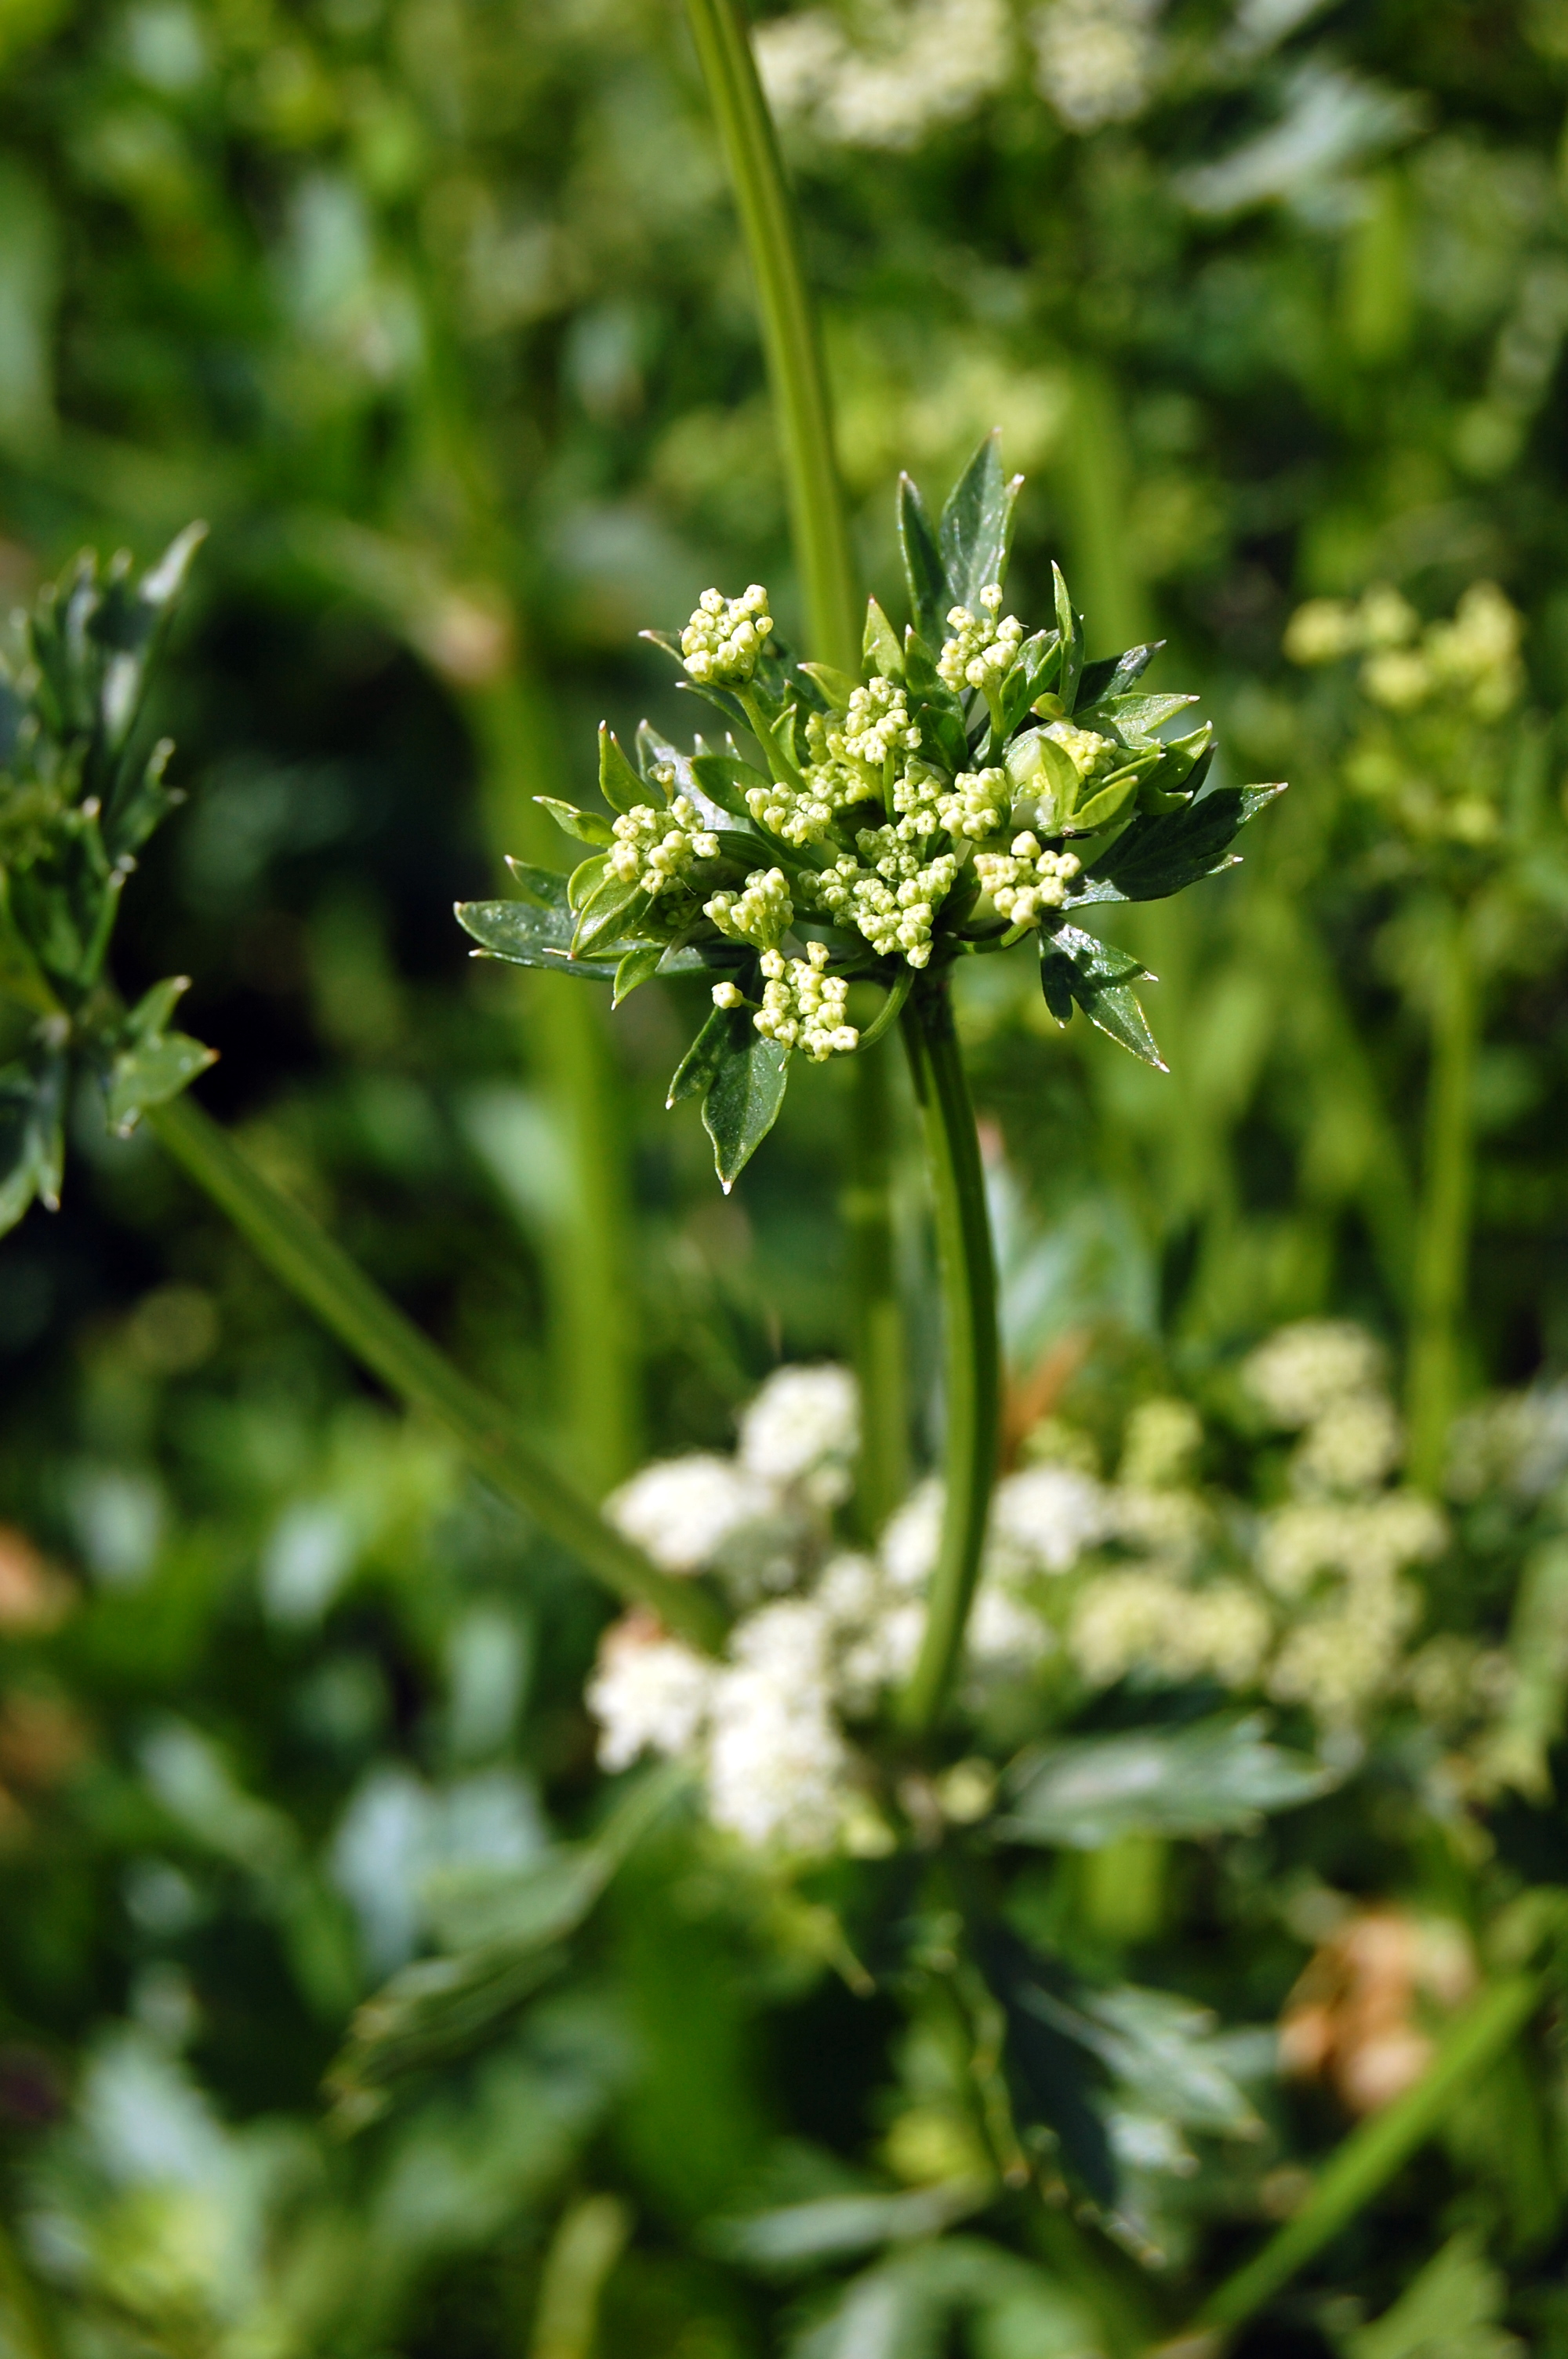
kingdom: Plantae
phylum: Tracheophyta
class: Magnoliopsida
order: Apiales
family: Apiaceae
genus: Apium
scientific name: Apium graveolens
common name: Wild celery
